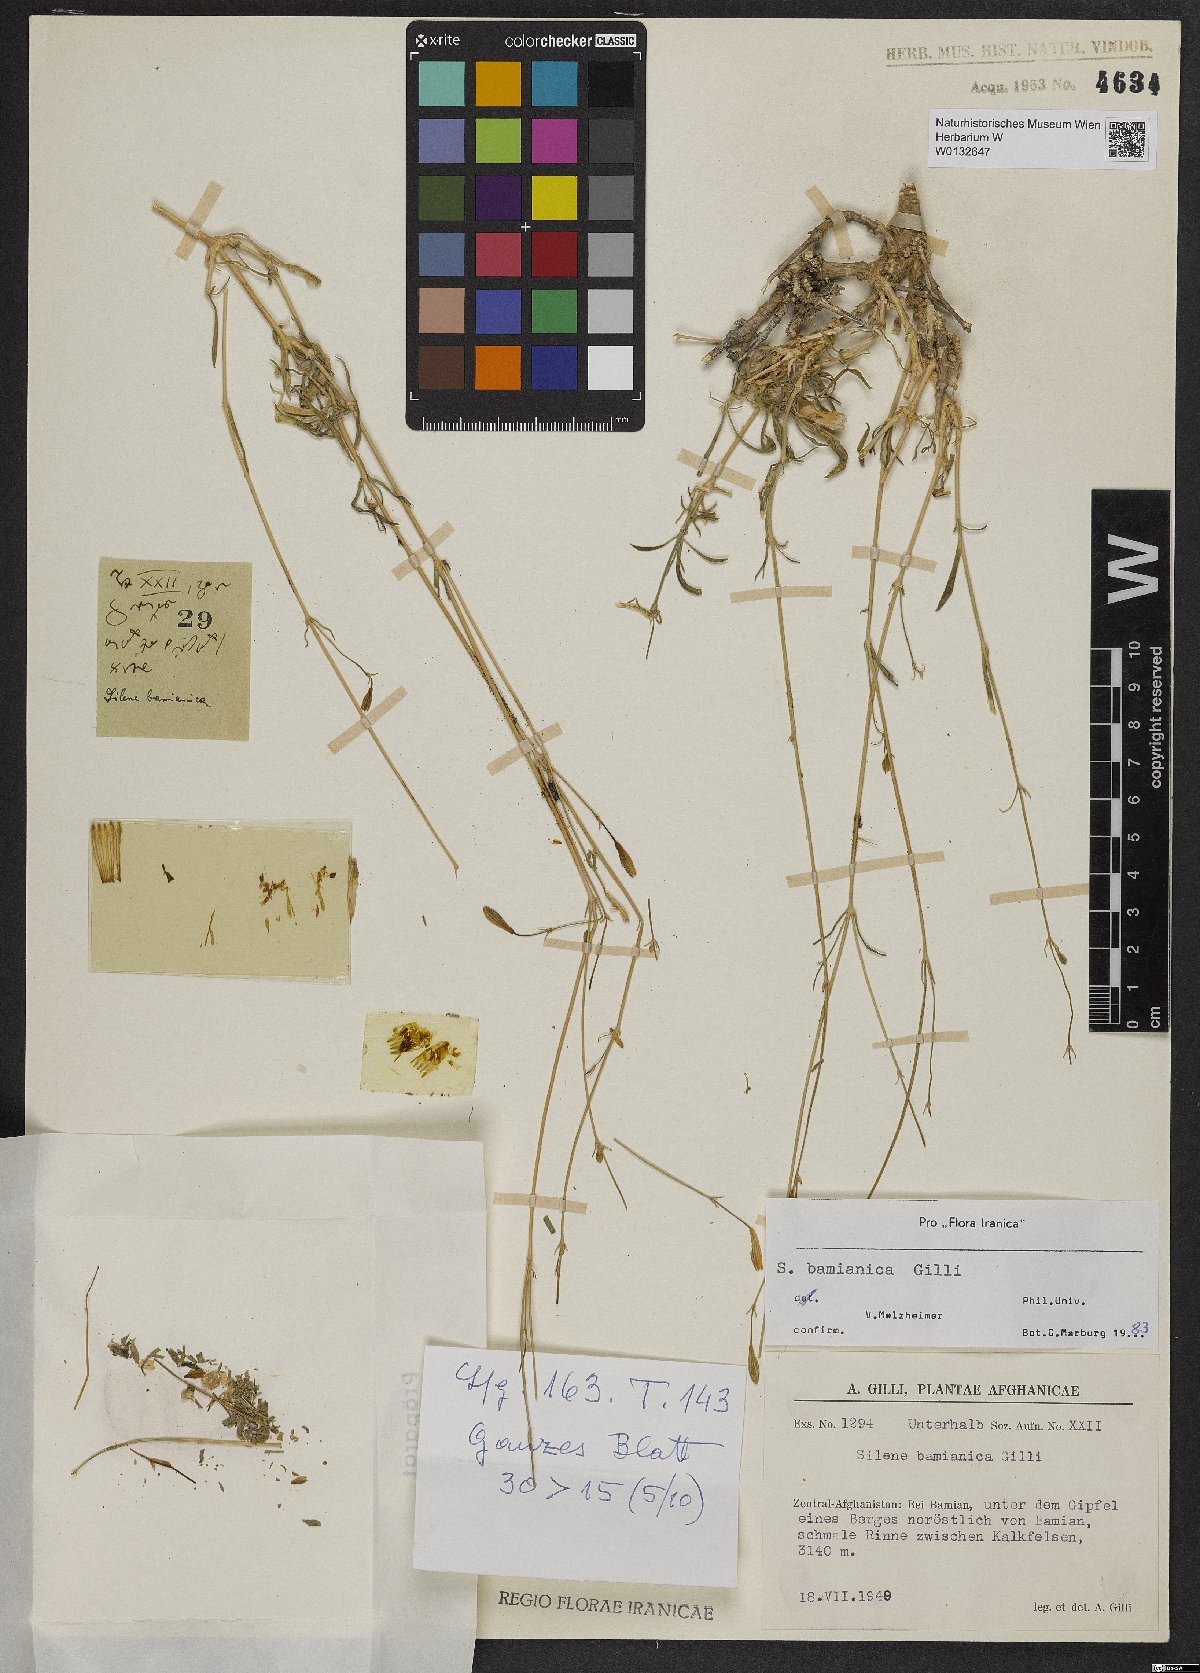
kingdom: Plantae
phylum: Tracheophyta
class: Magnoliopsida
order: Caryophyllales
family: Caryophyllaceae
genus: Silene
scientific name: Silene bamianica
